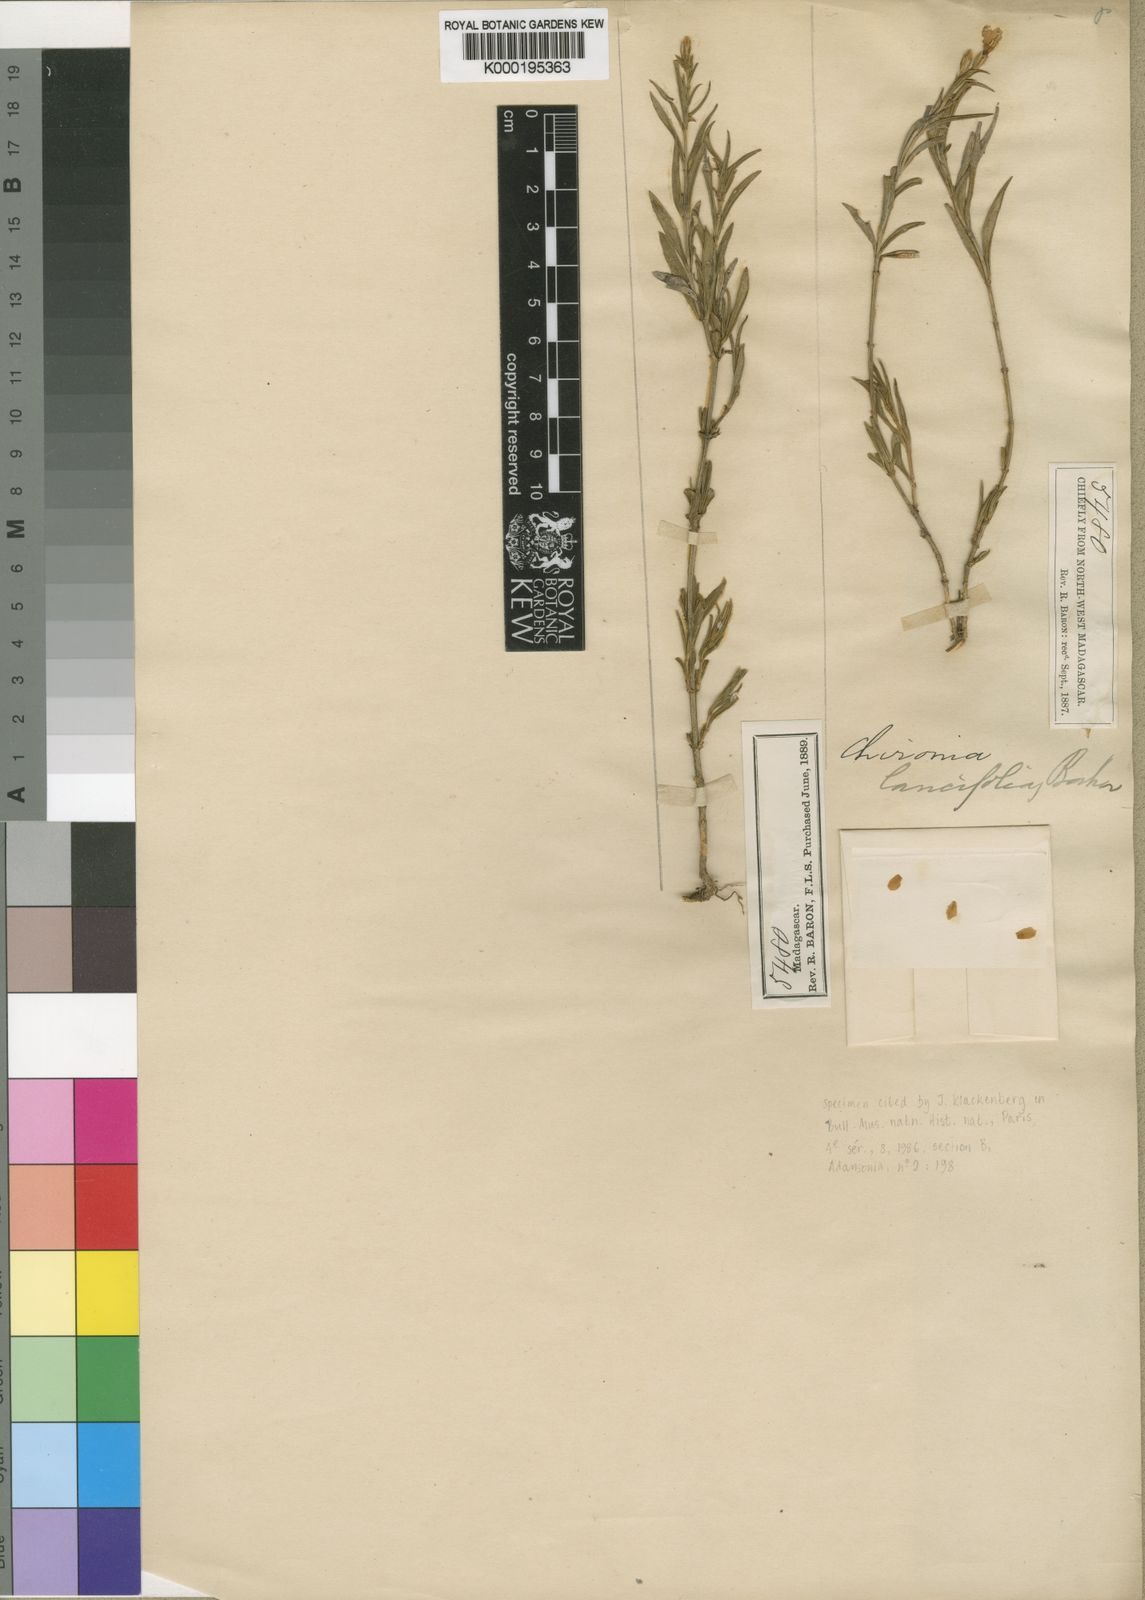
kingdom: Plantae
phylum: Tracheophyta
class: Magnoliopsida
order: Gentianales
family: Gentianaceae
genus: Ornichia
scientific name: Ornichia lancifolia
